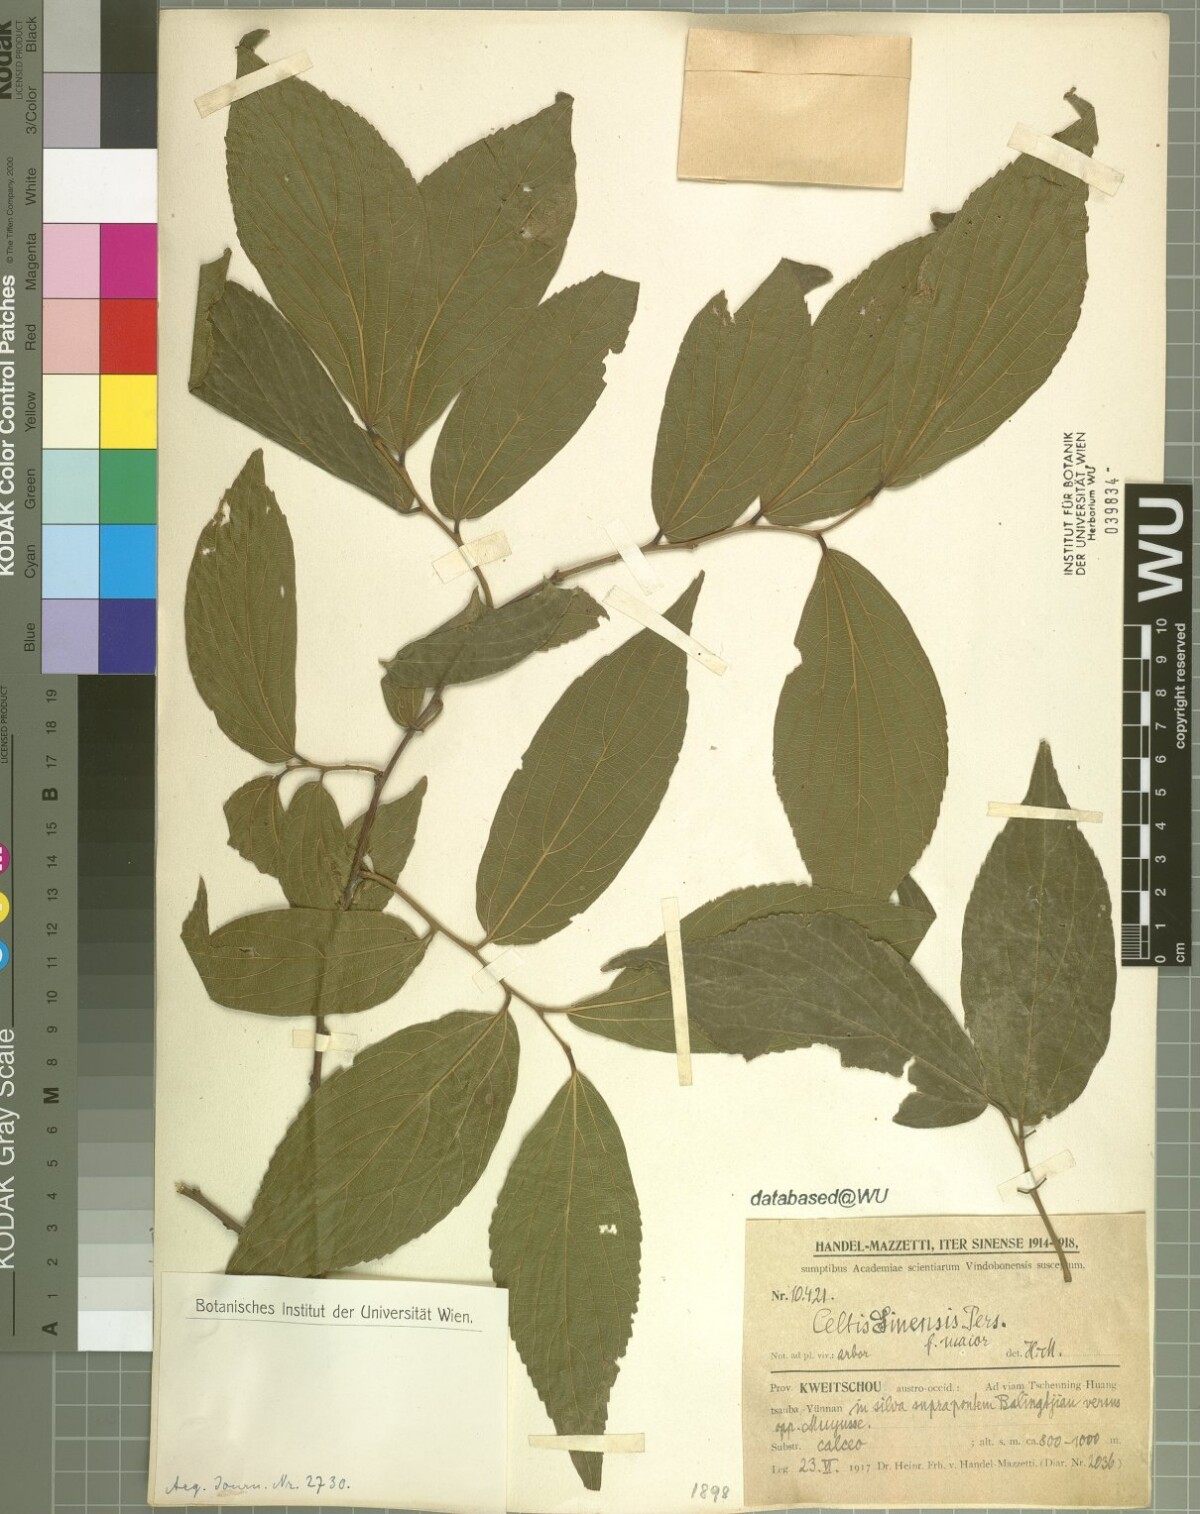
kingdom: Plantae
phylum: Tracheophyta
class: Magnoliopsida
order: Rosales
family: Cannabaceae
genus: Celtis
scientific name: Celtis sinensis
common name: Chinese hackberry
